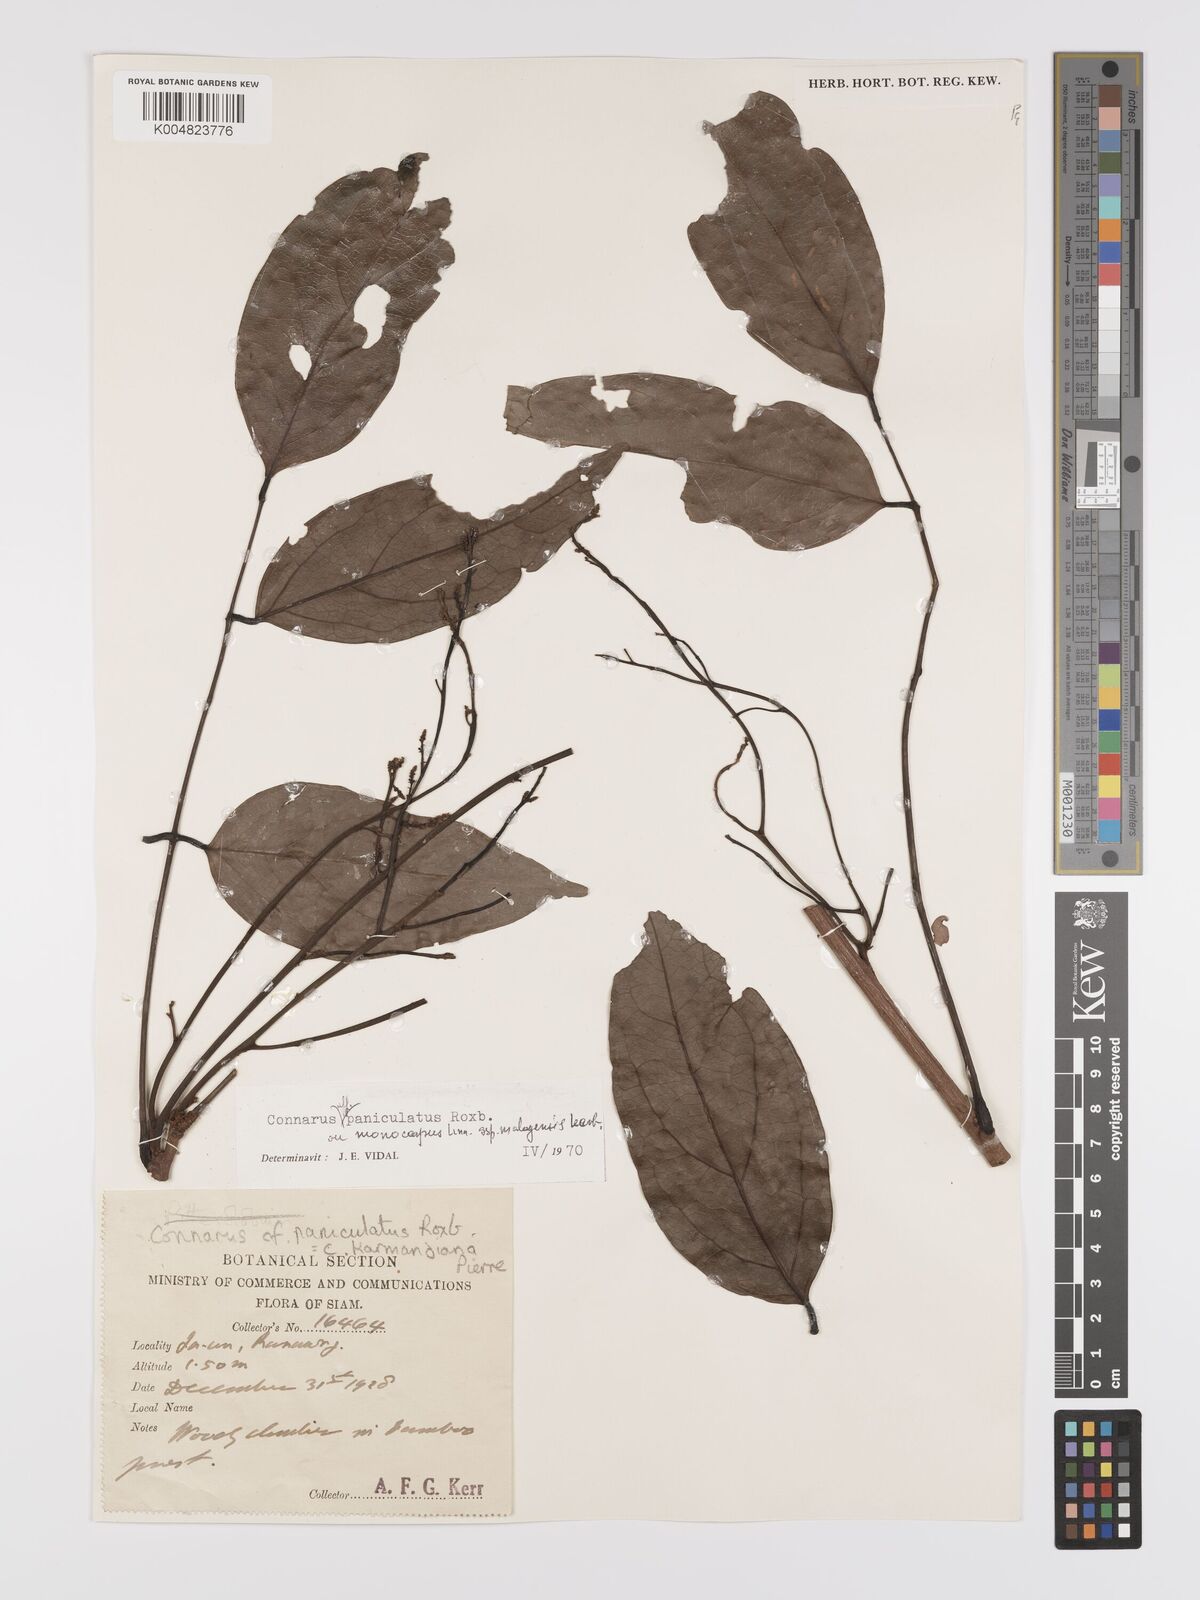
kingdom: Plantae
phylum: Tracheophyta
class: Magnoliopsida
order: Oxalidales
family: Connaraceae
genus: Connarus
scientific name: Connarus paniculatus
